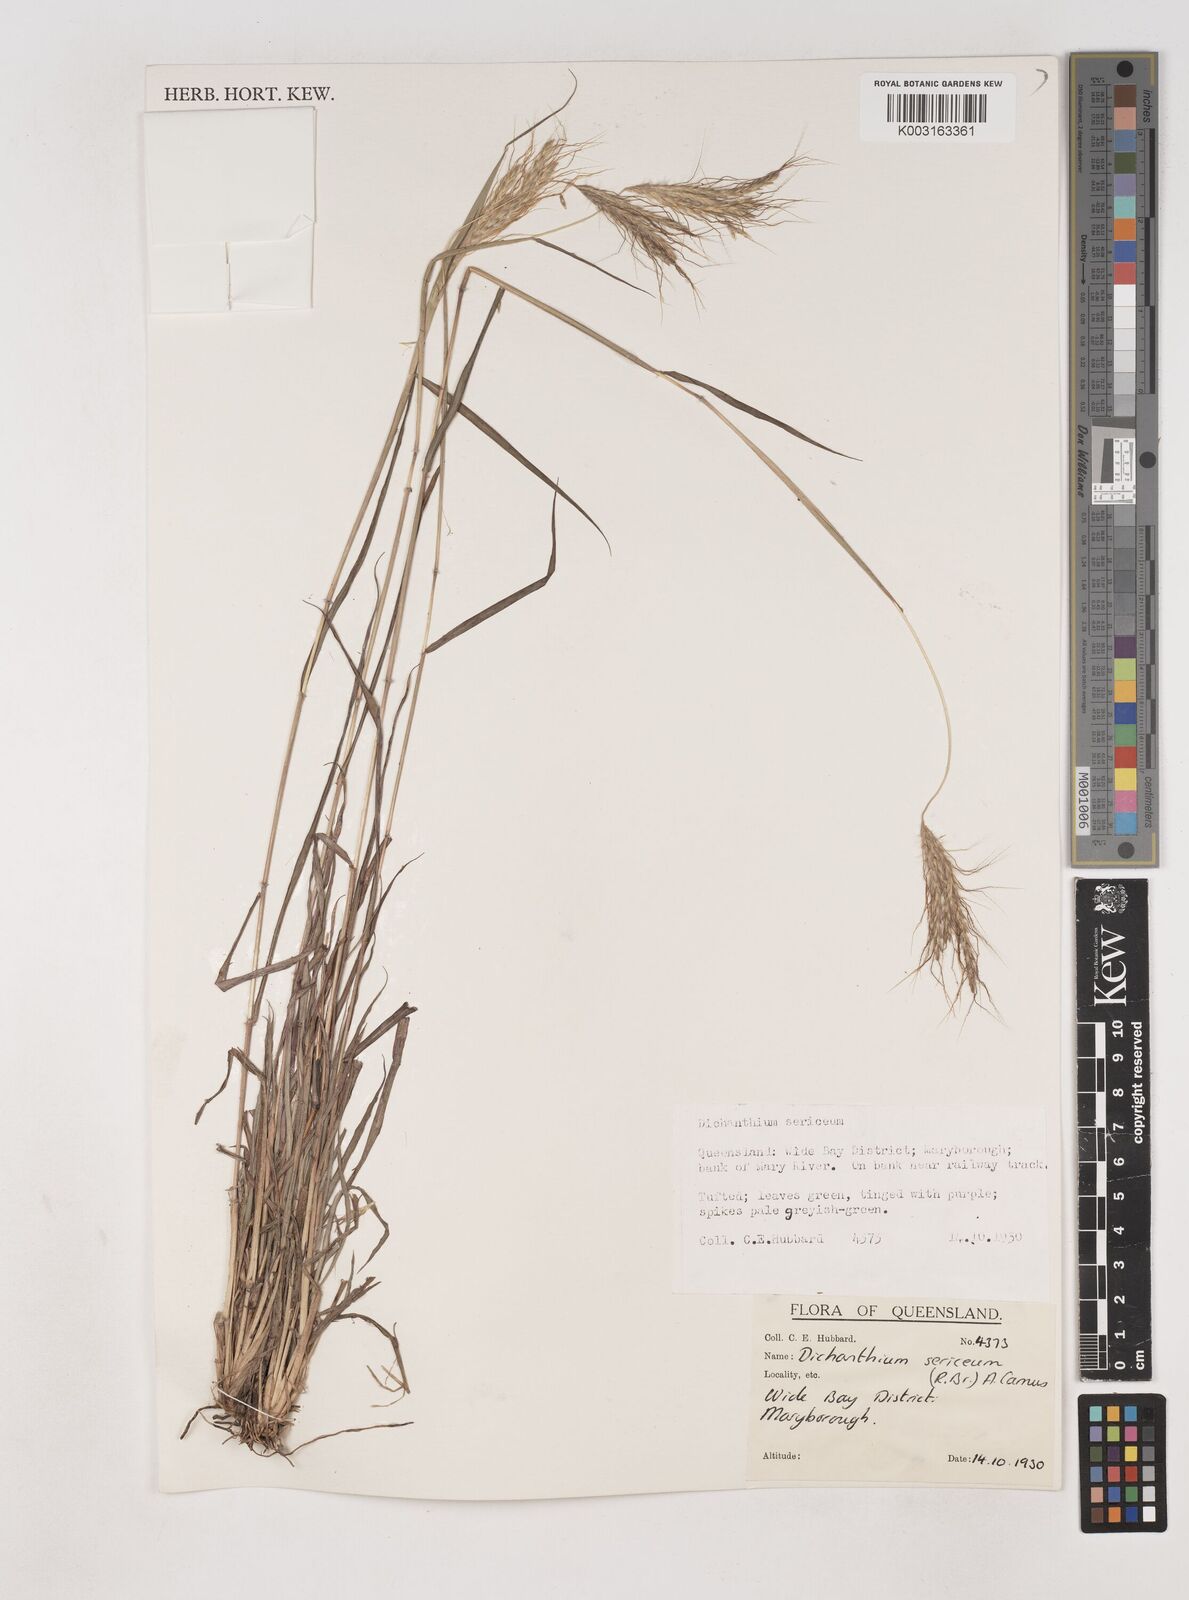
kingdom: Plantae
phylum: Tracheophyta
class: Liliopsida
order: Poales
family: Poaceae
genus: Dichanthium
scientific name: Dichanthium sericeum
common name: Silky bluestem
